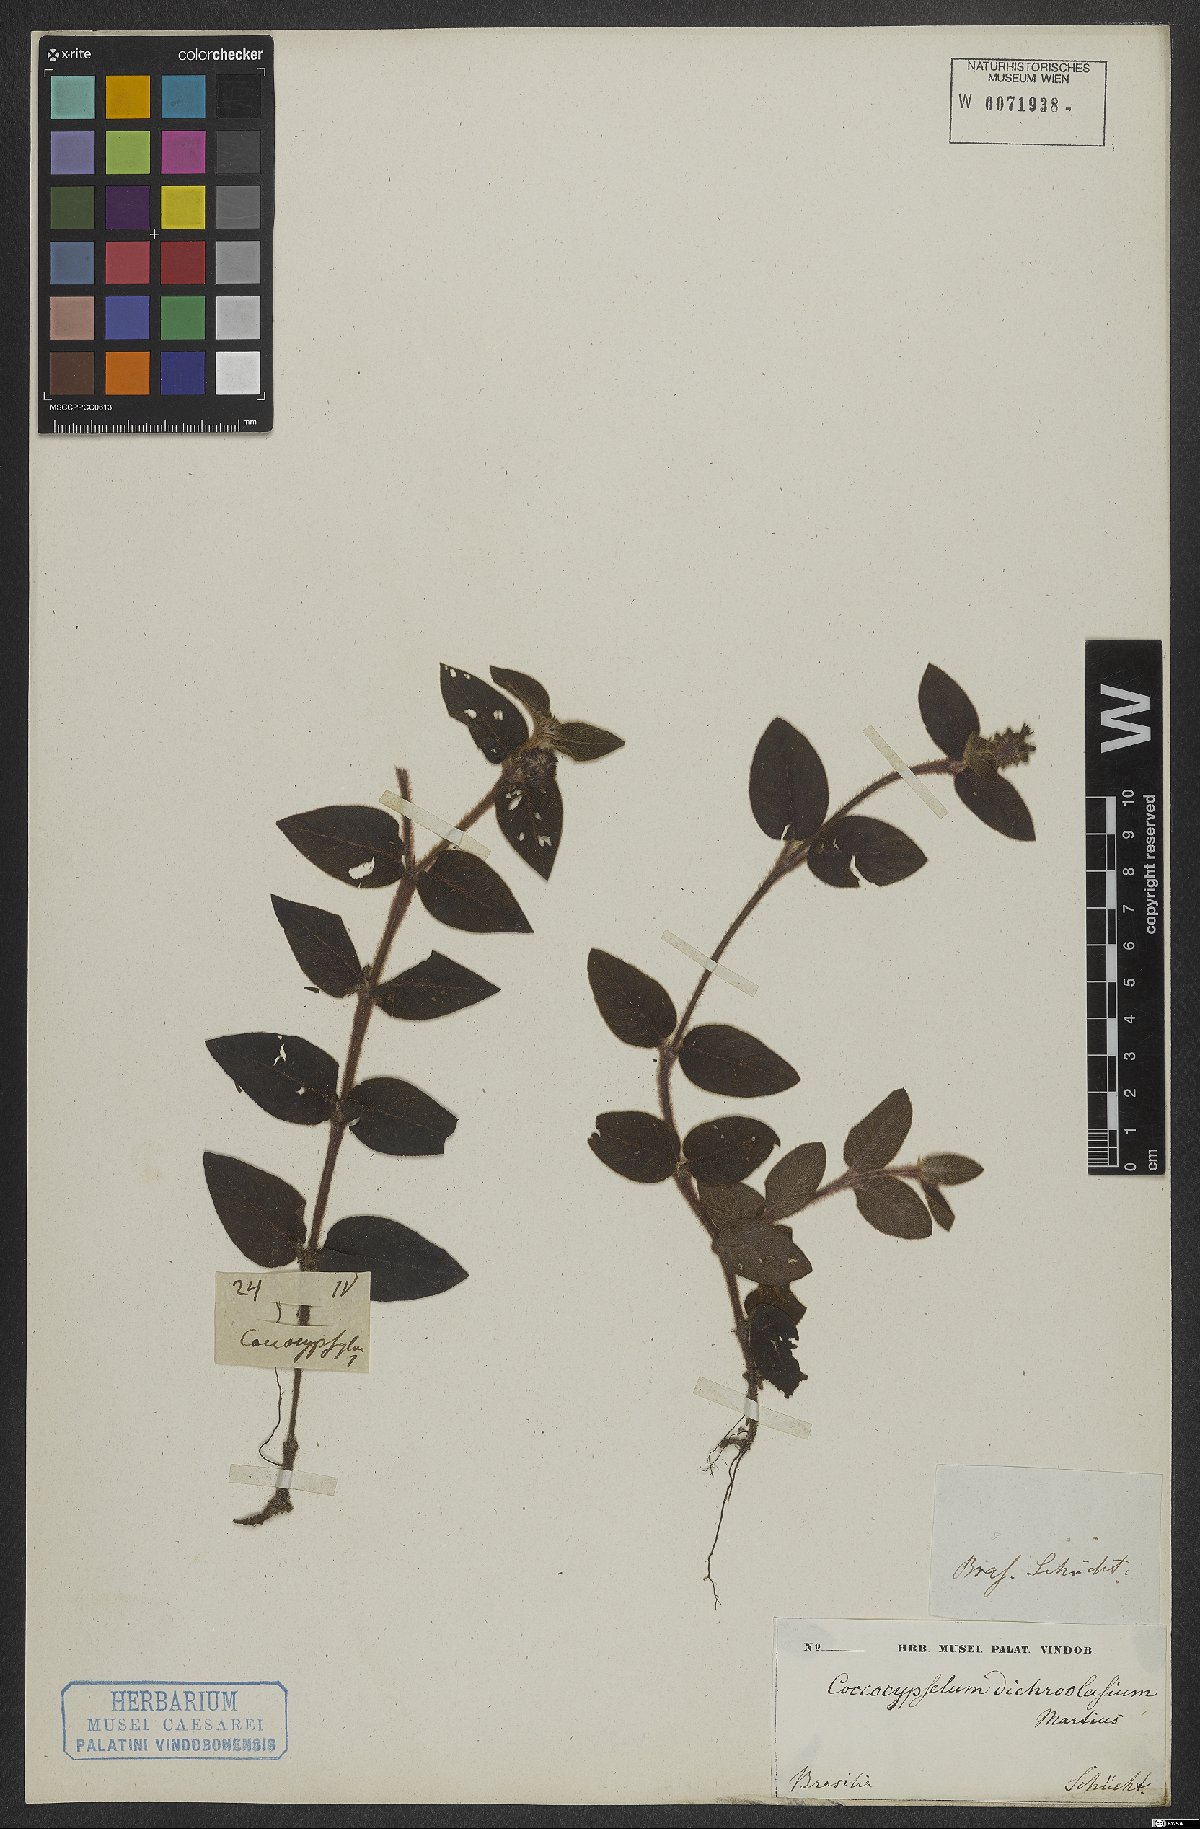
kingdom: Plantae
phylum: Tracheophyta
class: Magnoliopsida
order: Gentianales
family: Rubiaceae
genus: Coccocypselum
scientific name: Coccocypselum lanceolatum
